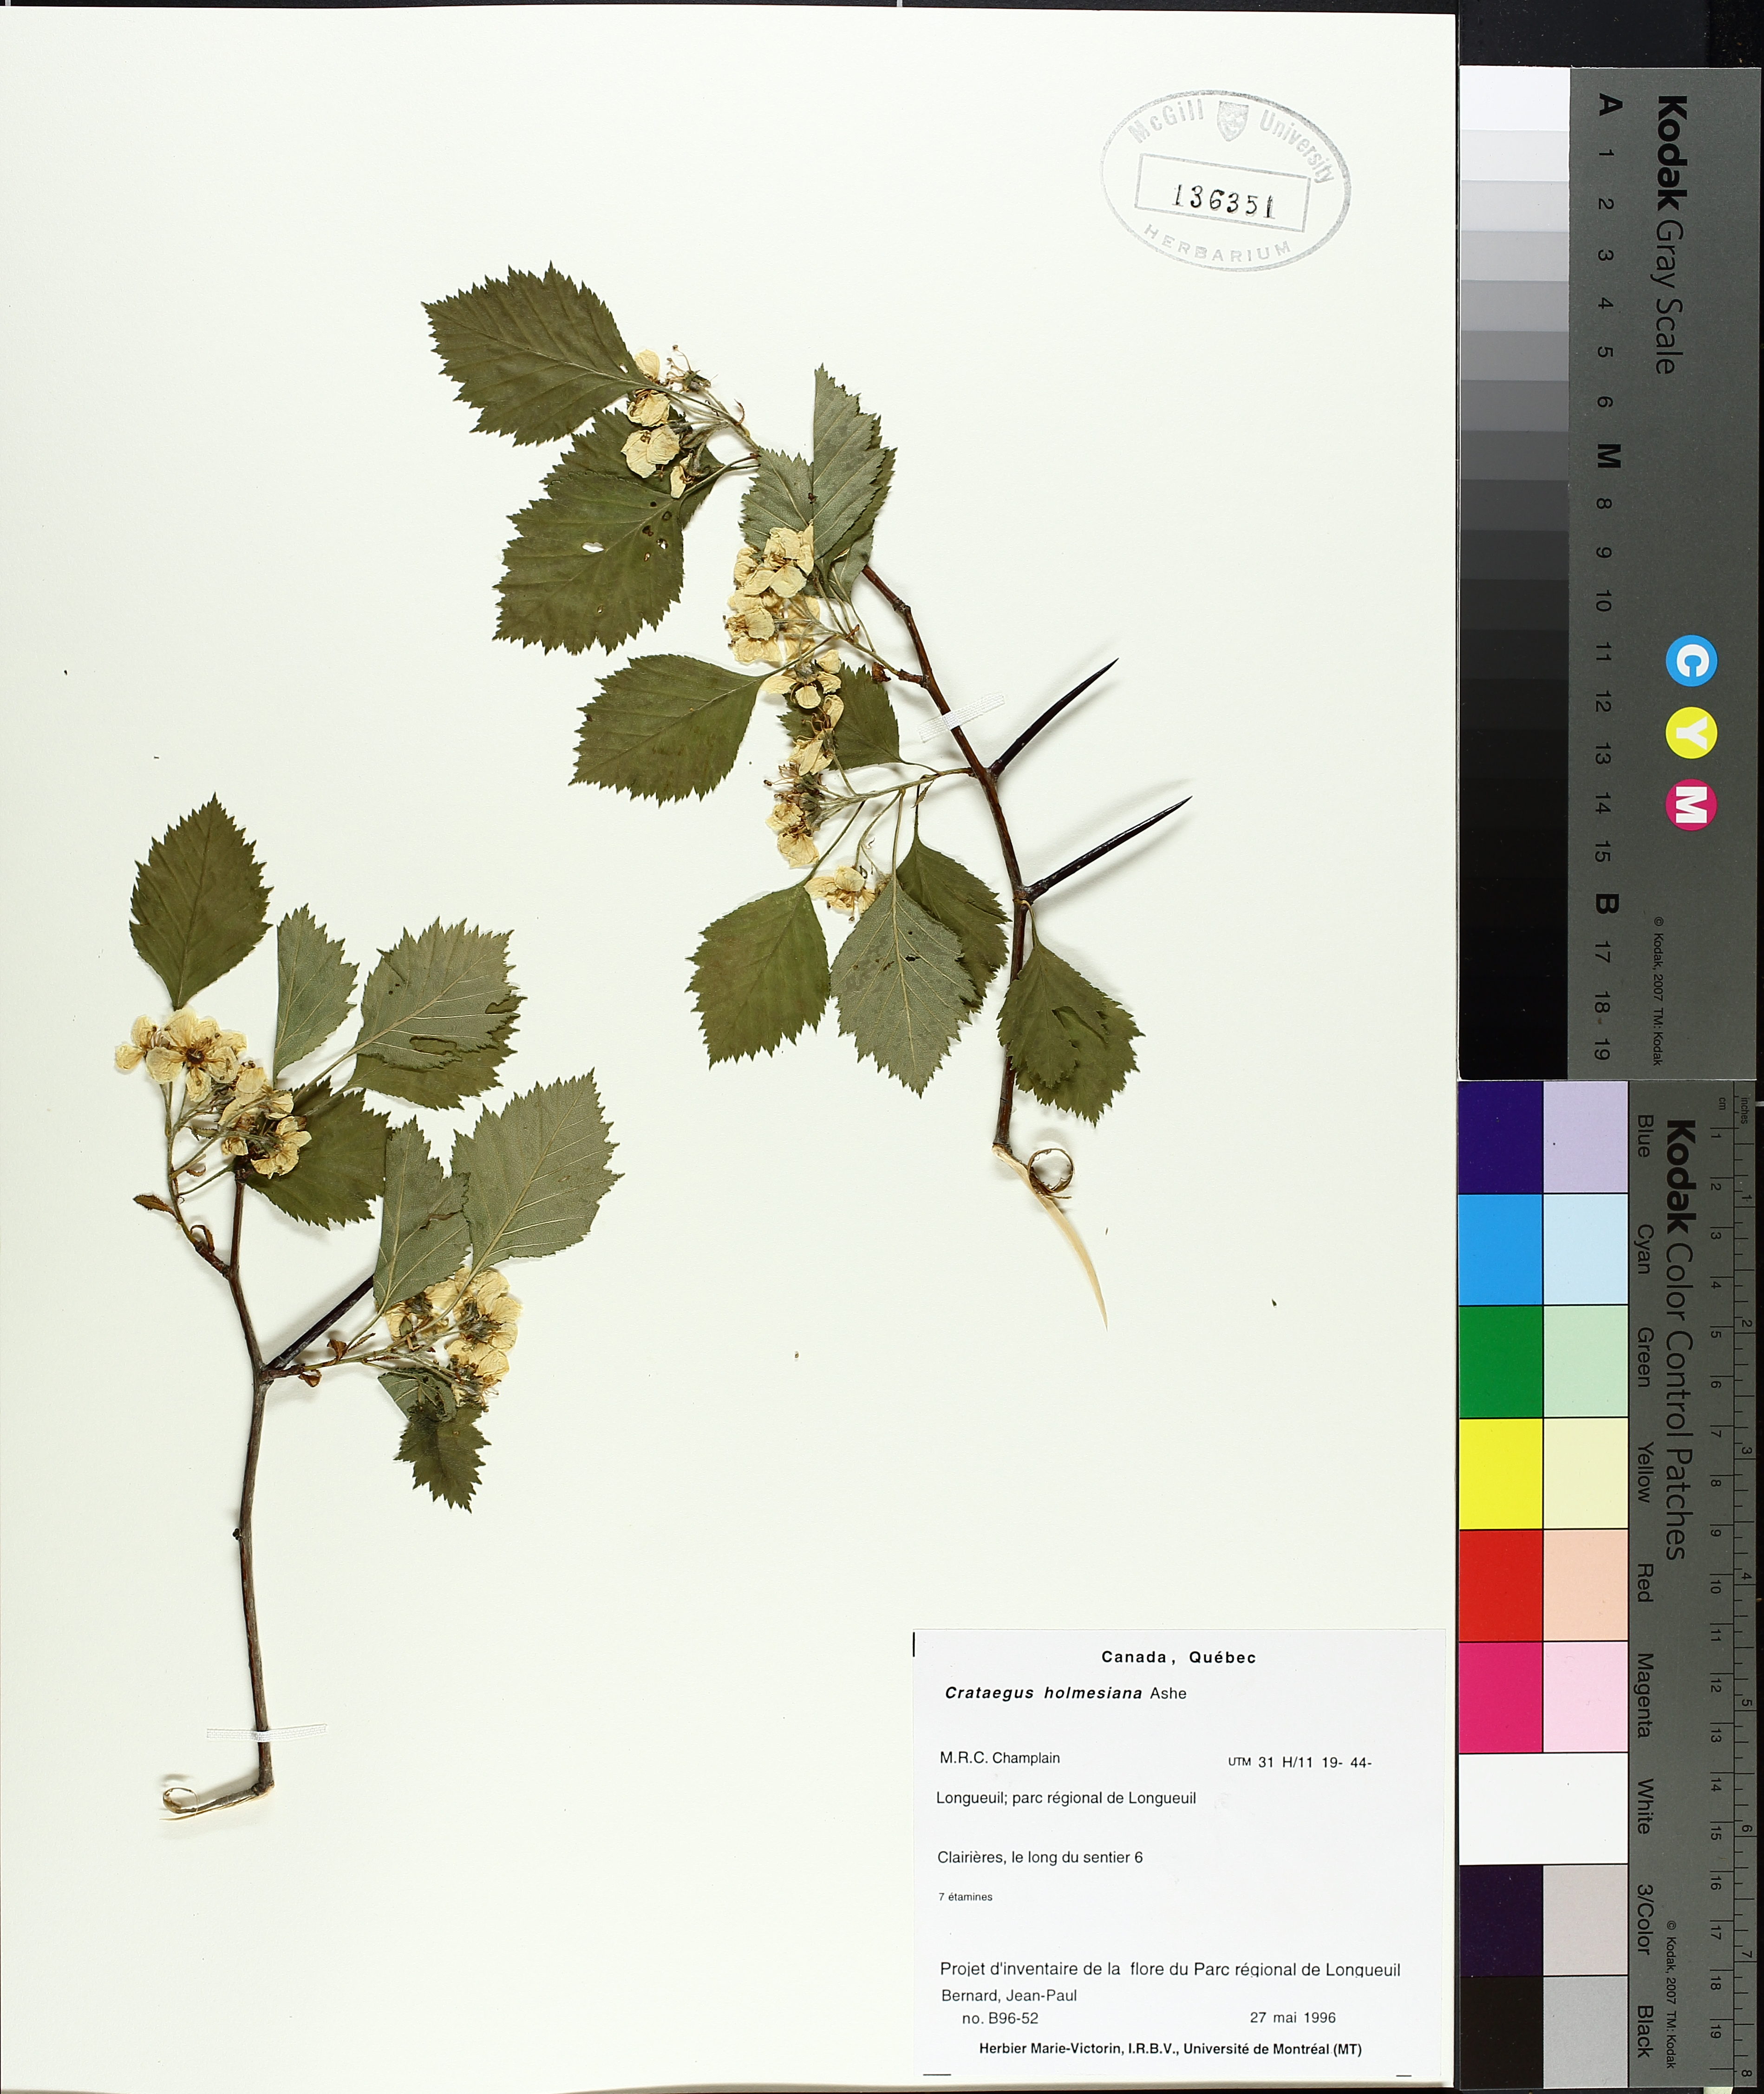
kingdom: Plantae
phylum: Tracheophyta
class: Magnoliopsida
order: Rosales
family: Rosaceae
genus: Crataegus
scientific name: Crataegus holmesiana
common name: Holmes' hawthorn
